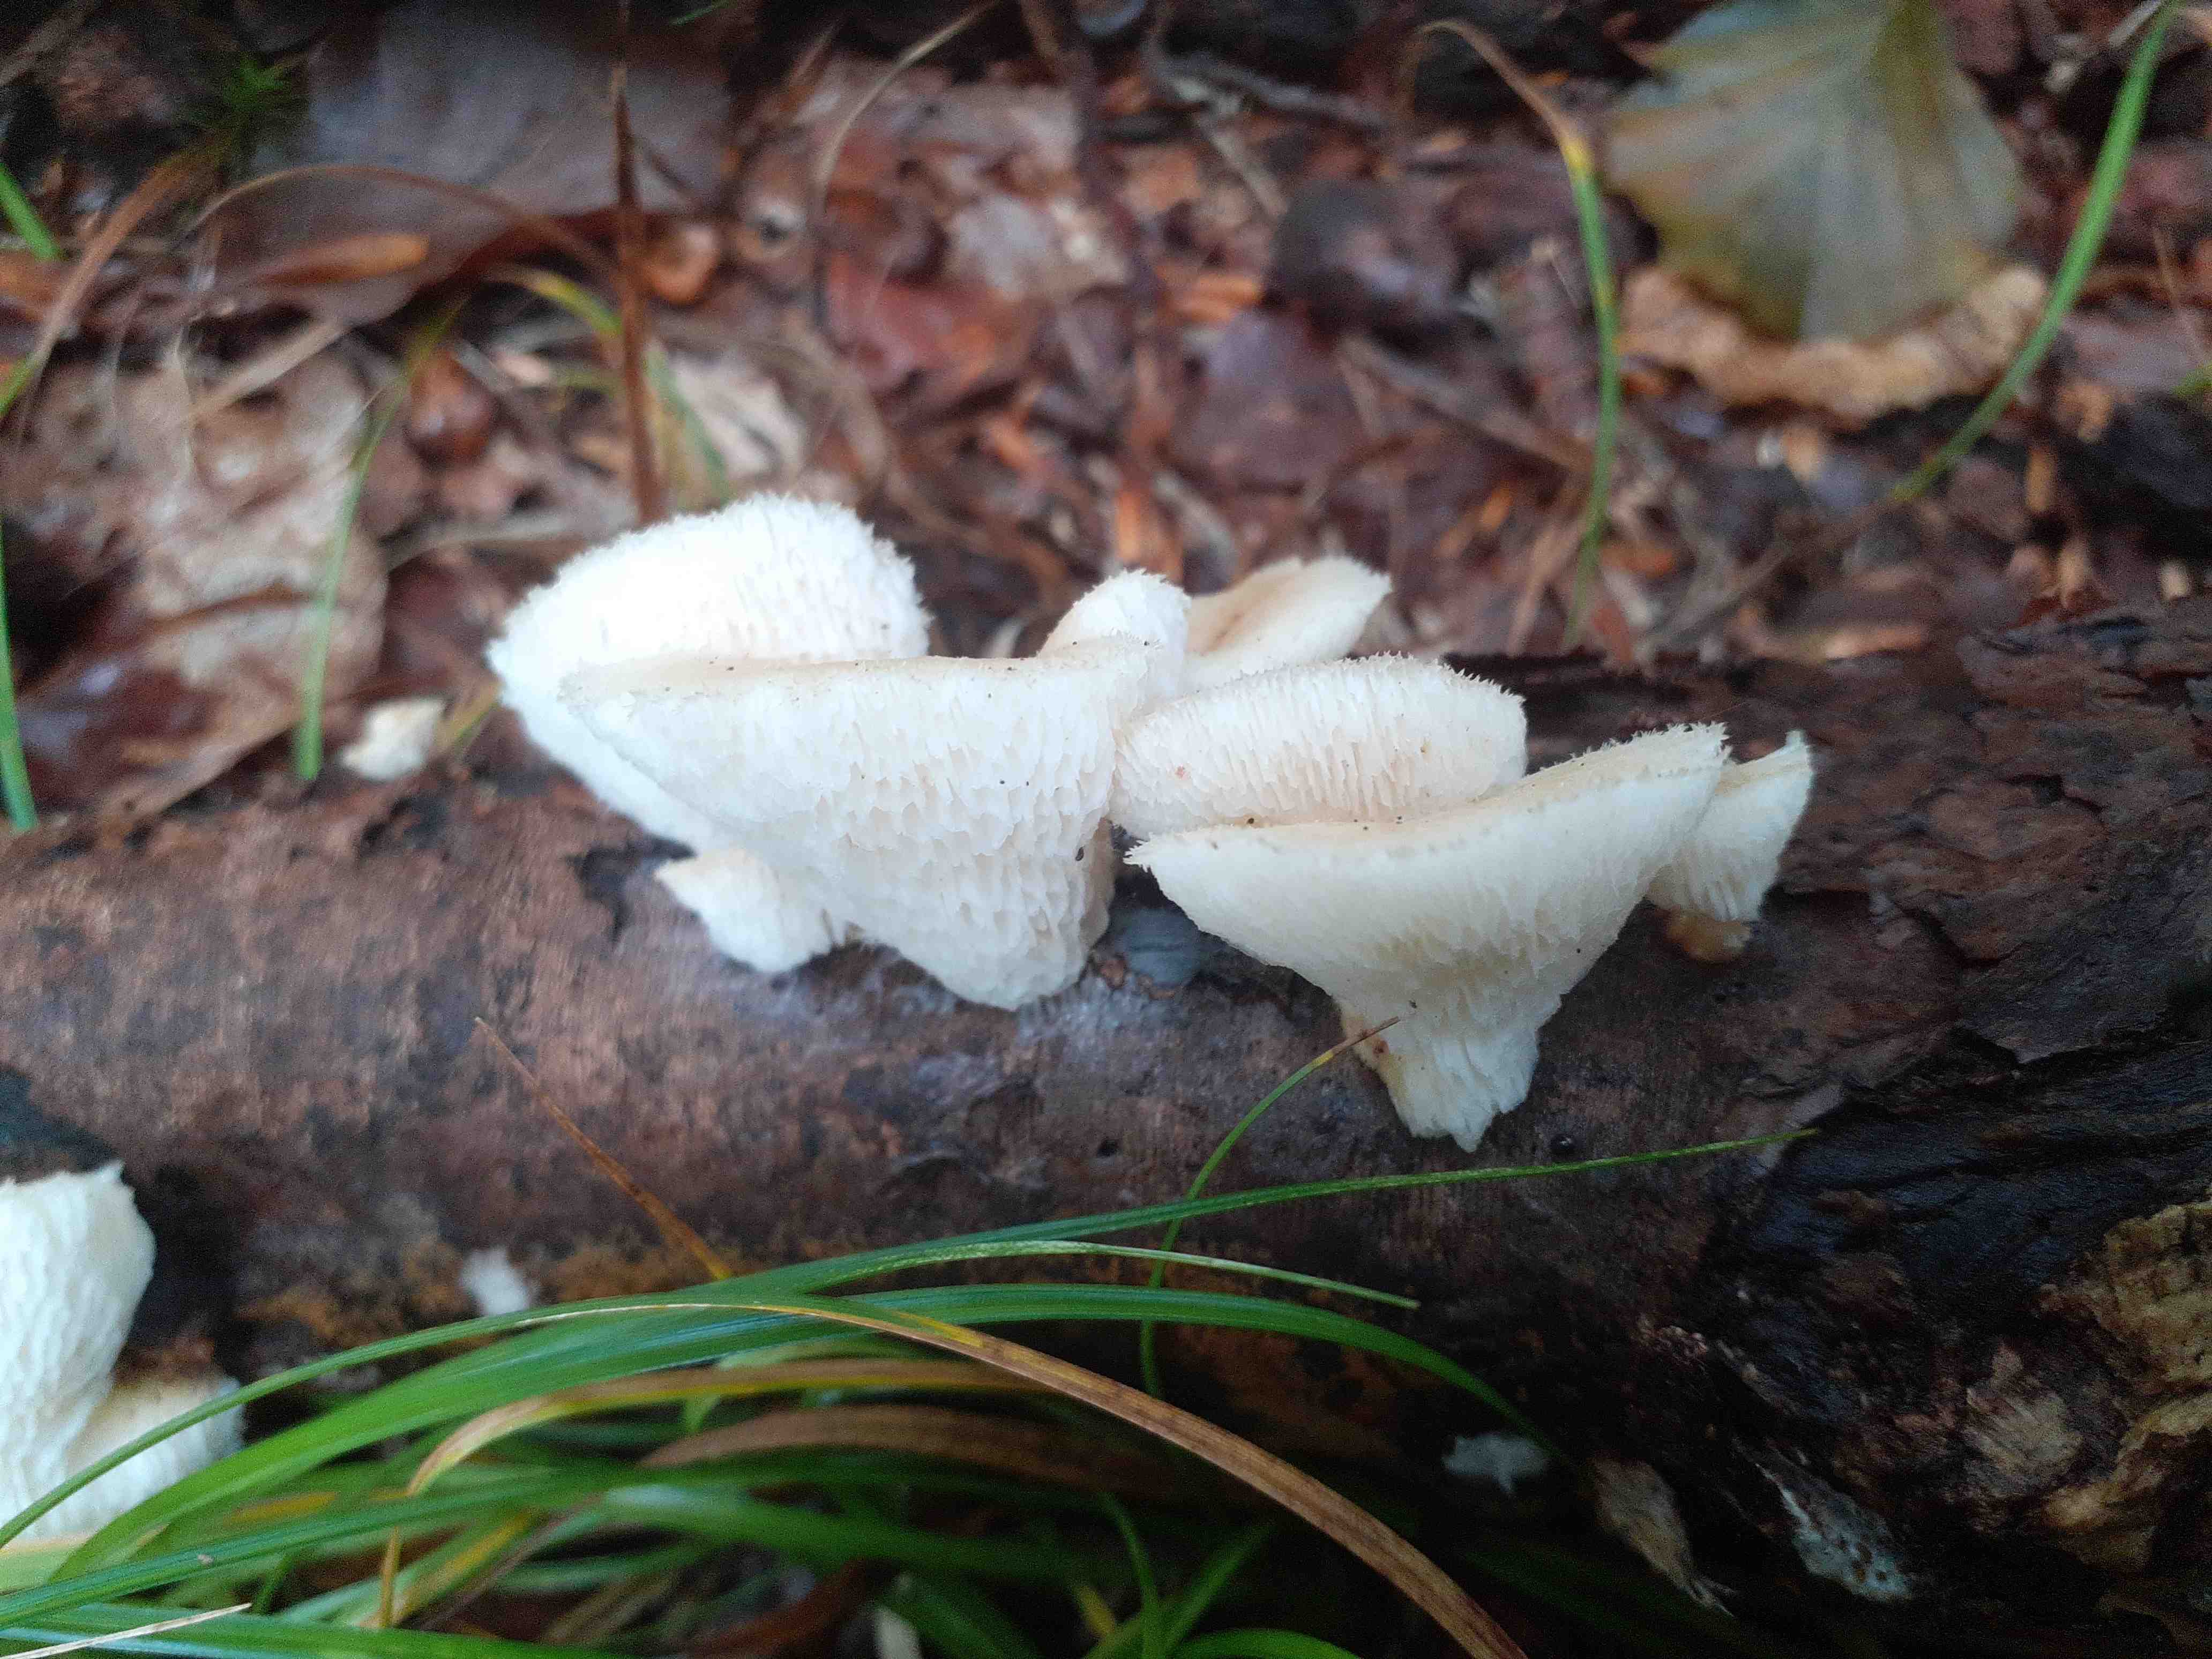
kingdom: Fungi
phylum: Basidiomycota
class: Agaricomycetes
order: Polyporales
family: Polyporaceae
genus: Polyporus
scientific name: Polyporus tuberaster
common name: knoldet stilkporesvamp
